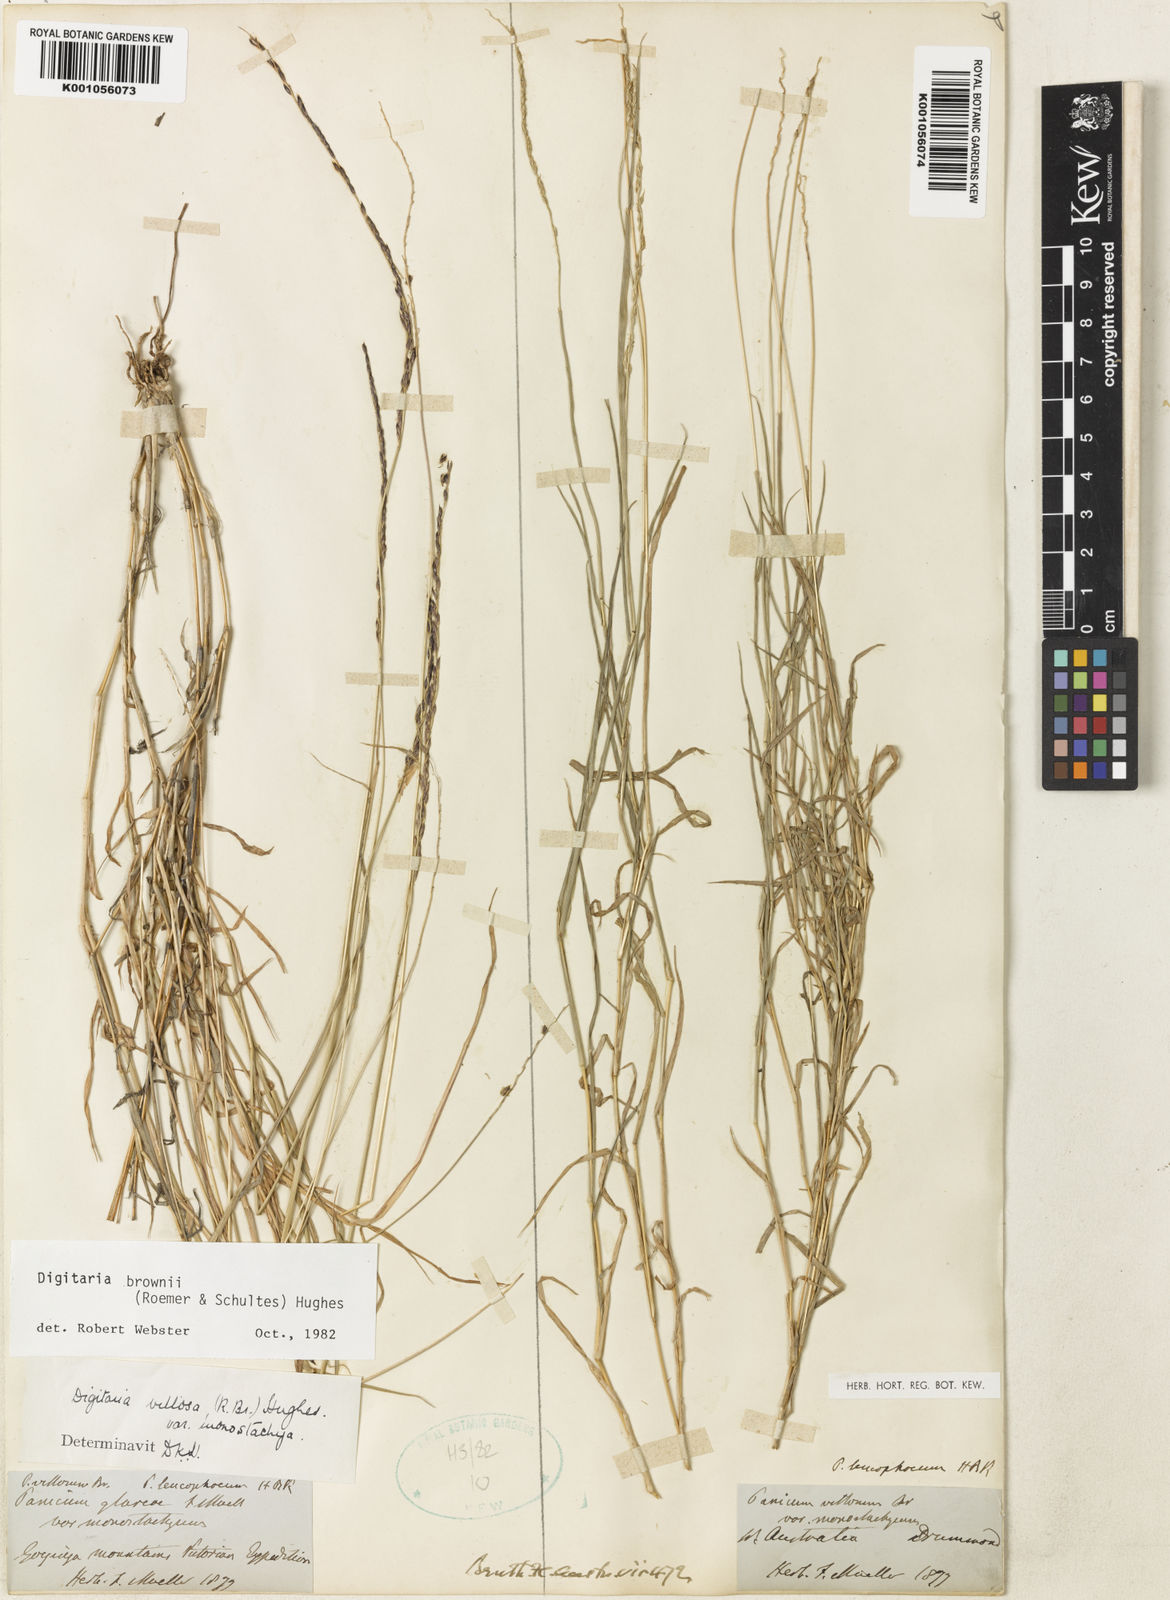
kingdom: Plantae
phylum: Tracheophyta
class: Liliopsida
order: Poales
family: Poaceae
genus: Digitaria
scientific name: Digitaria brownii
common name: Cotton grass
